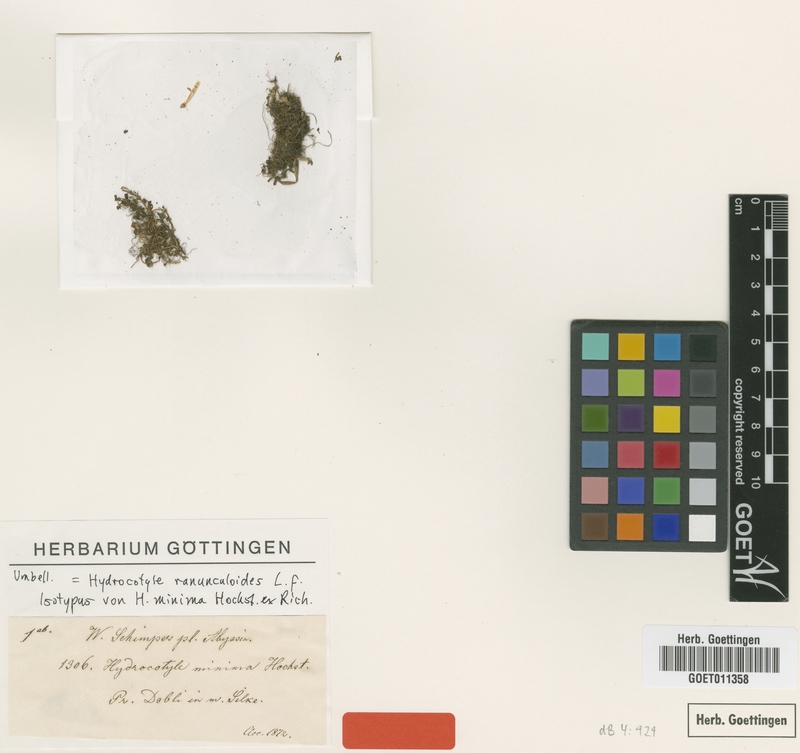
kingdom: Plantae
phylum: Tracheophyta
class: Magnoliopsida
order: Apiales
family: Araliaceae
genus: Hydrocotyle
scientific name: Hydrocotyle ranunculoides
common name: Floating pennywort
